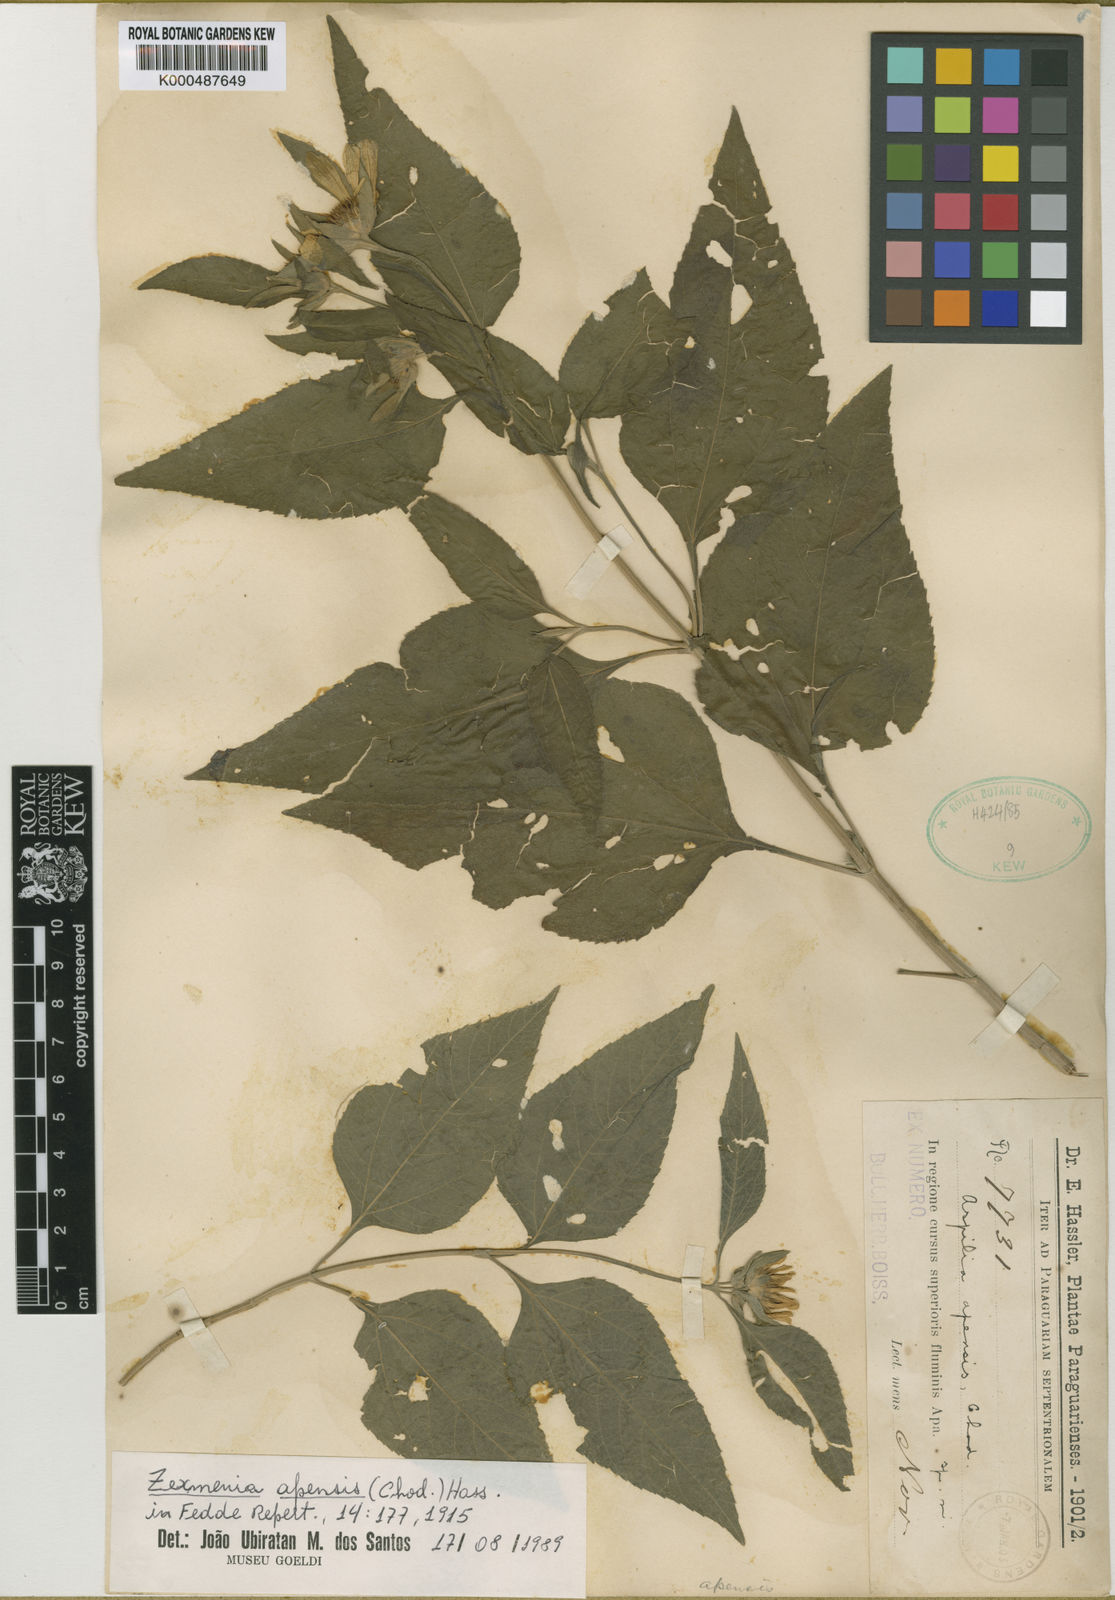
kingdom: Plantae
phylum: Tracheophyta
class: Magnoliopsida
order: Asterales
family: Asteraceae
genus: Dimerostemma
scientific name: Dimerostemma apense
